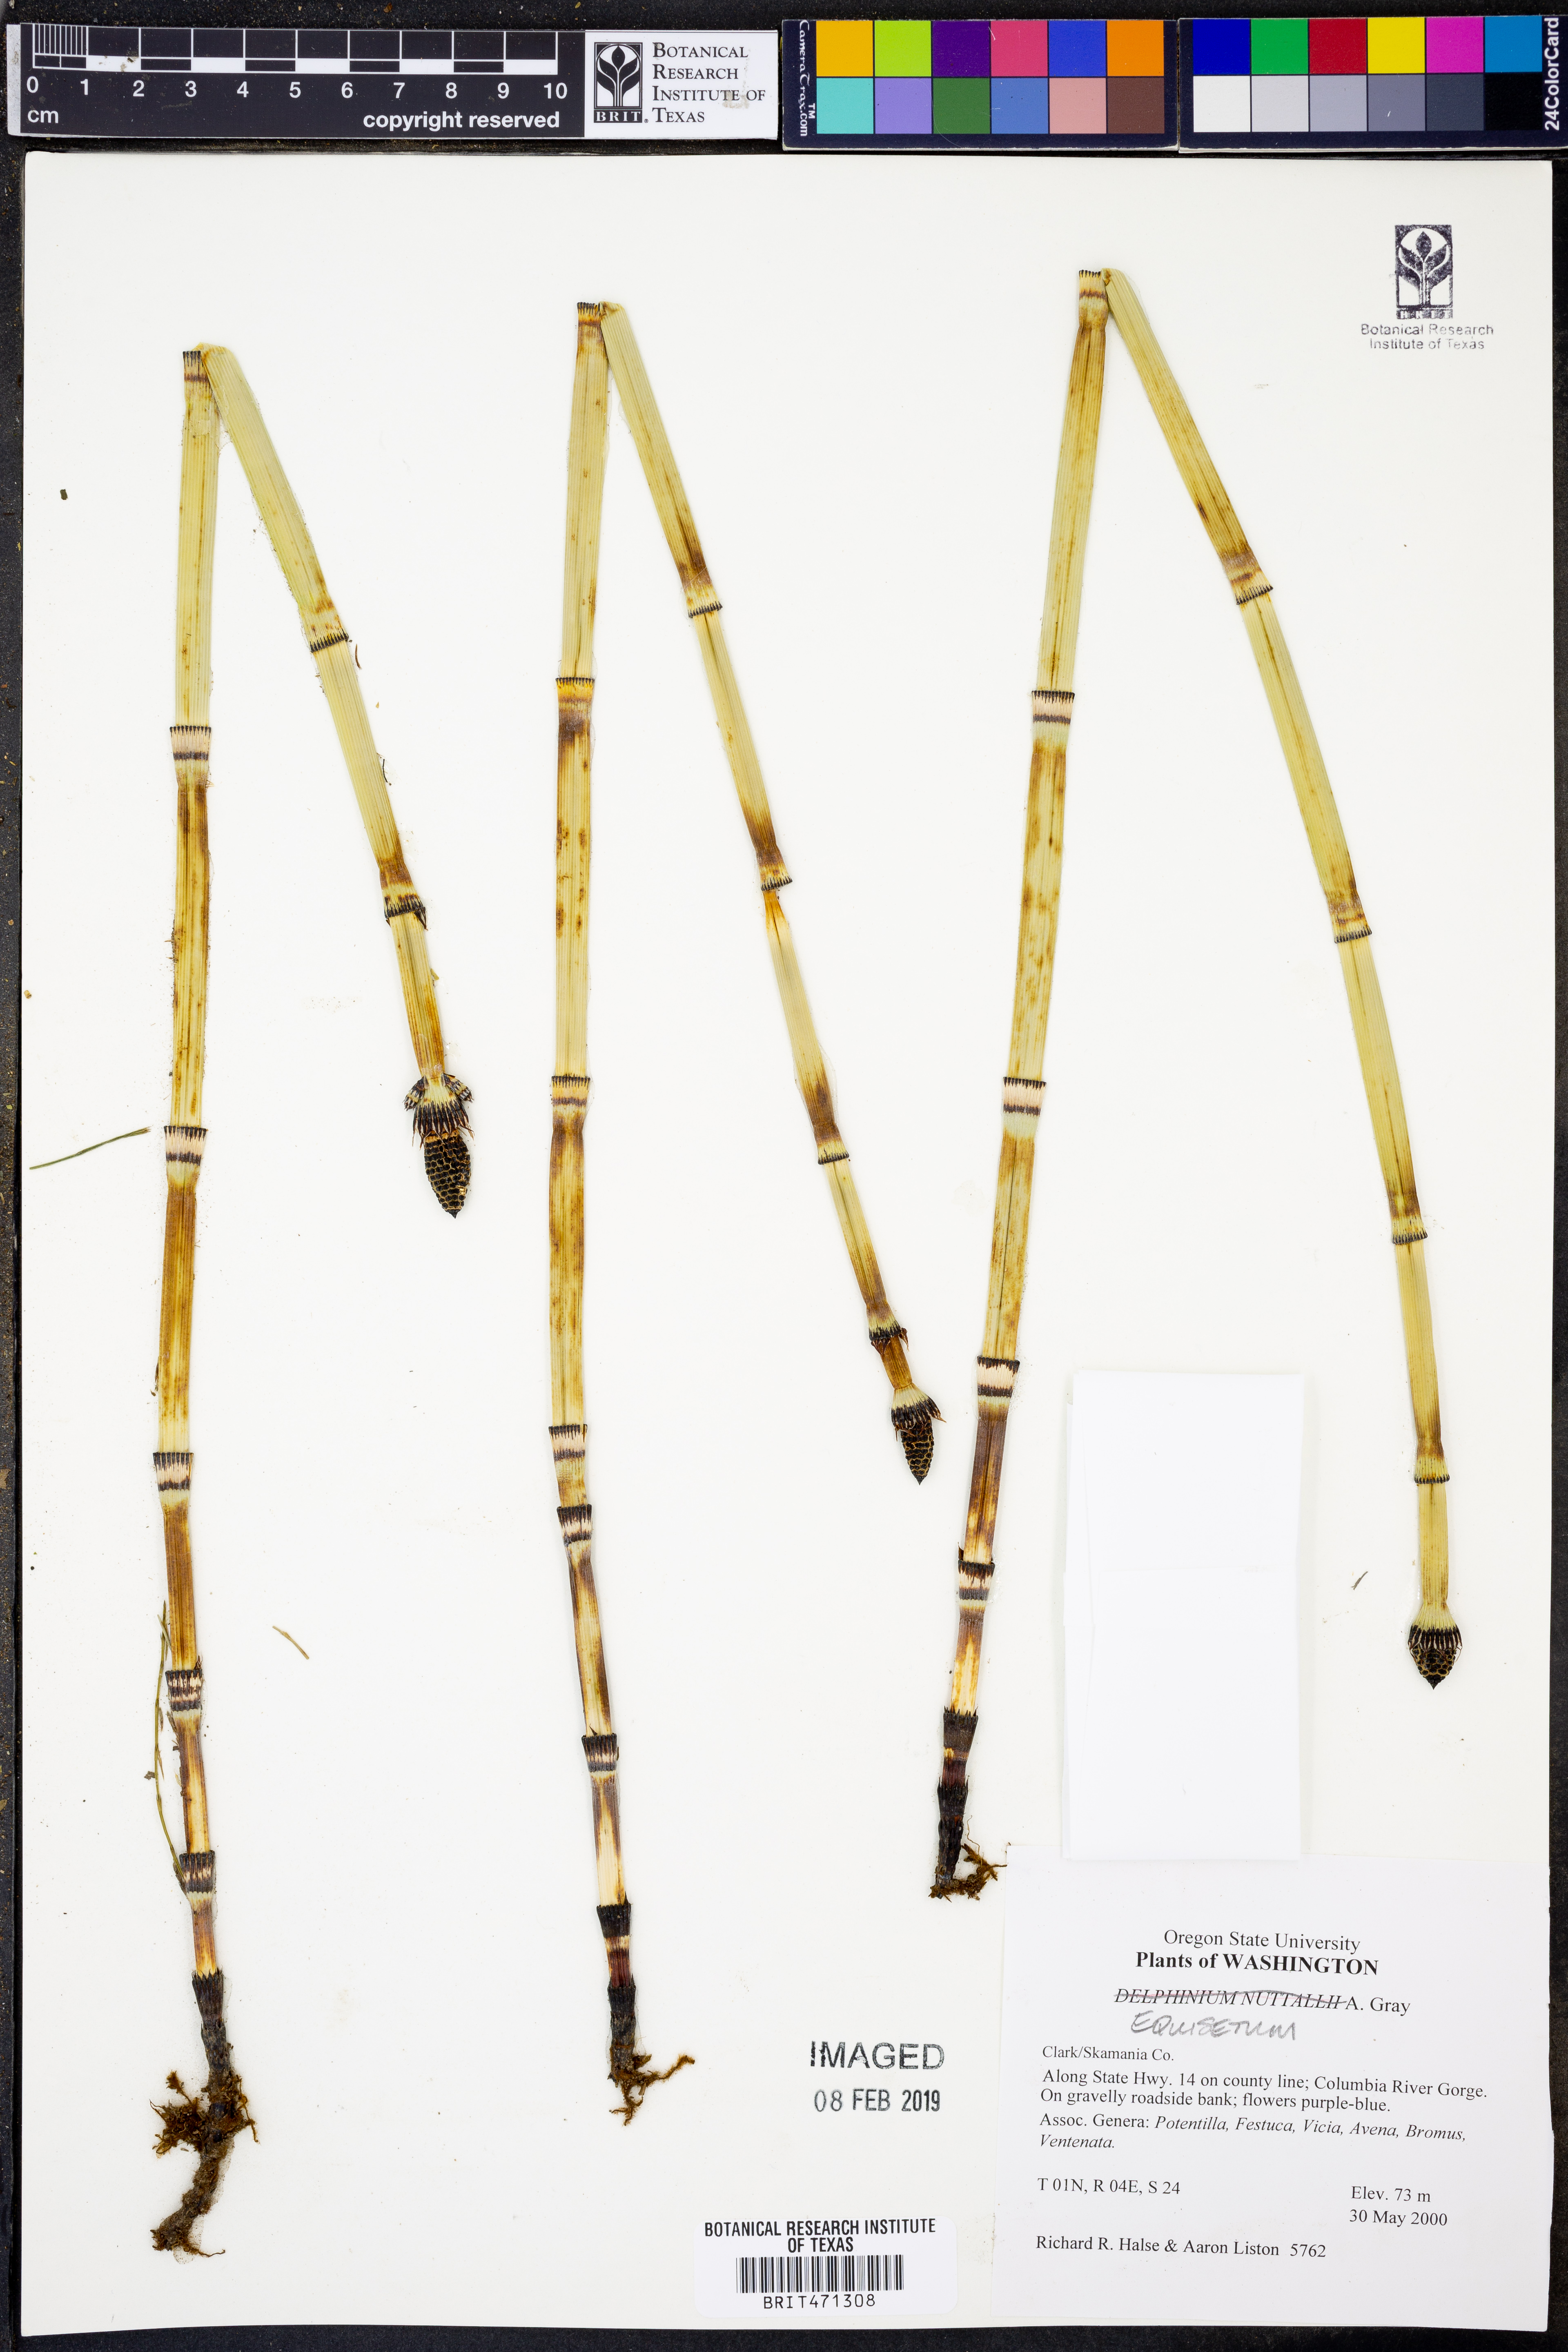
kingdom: Plantae
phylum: Tracheophyta
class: Polypodiopsida
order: Equisetales
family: Equisetaceae
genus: Equisetum
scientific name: Equisetum
